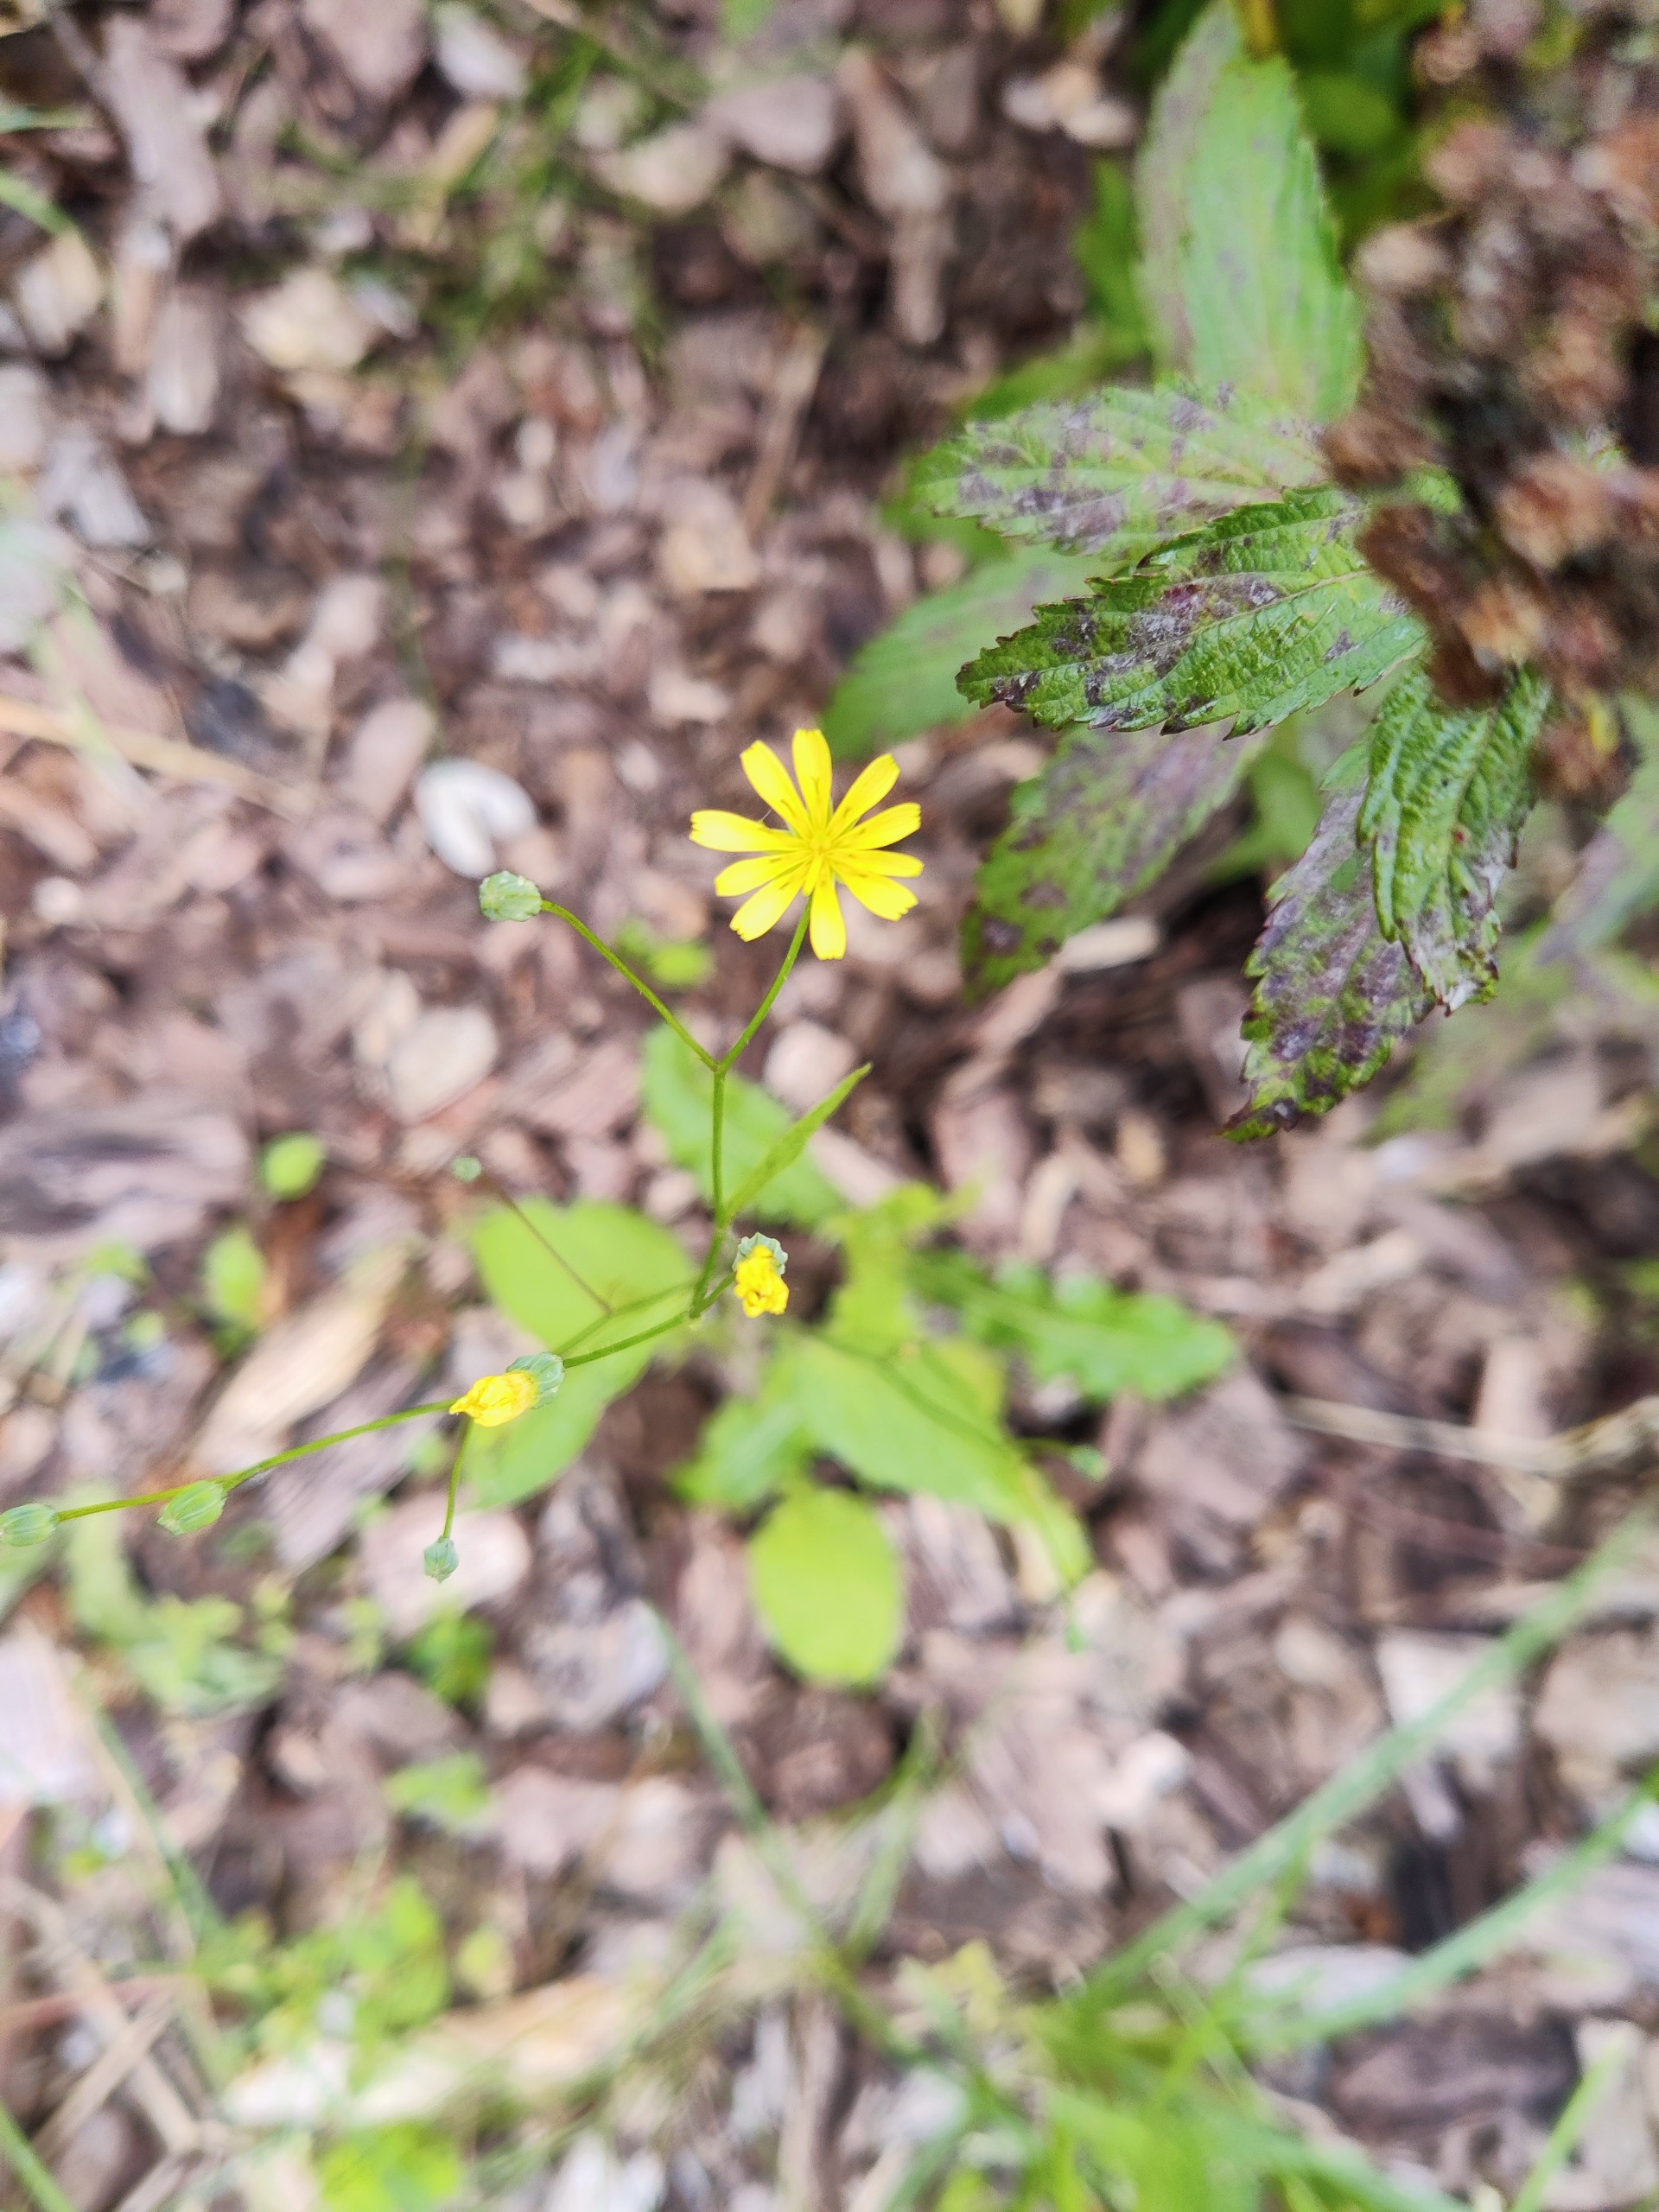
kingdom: Plantae
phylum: Tracheophyta
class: Magnoliopsida
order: Asterales
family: Asteraceae
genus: Lapsana
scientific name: Lapsana communis
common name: Haremad
